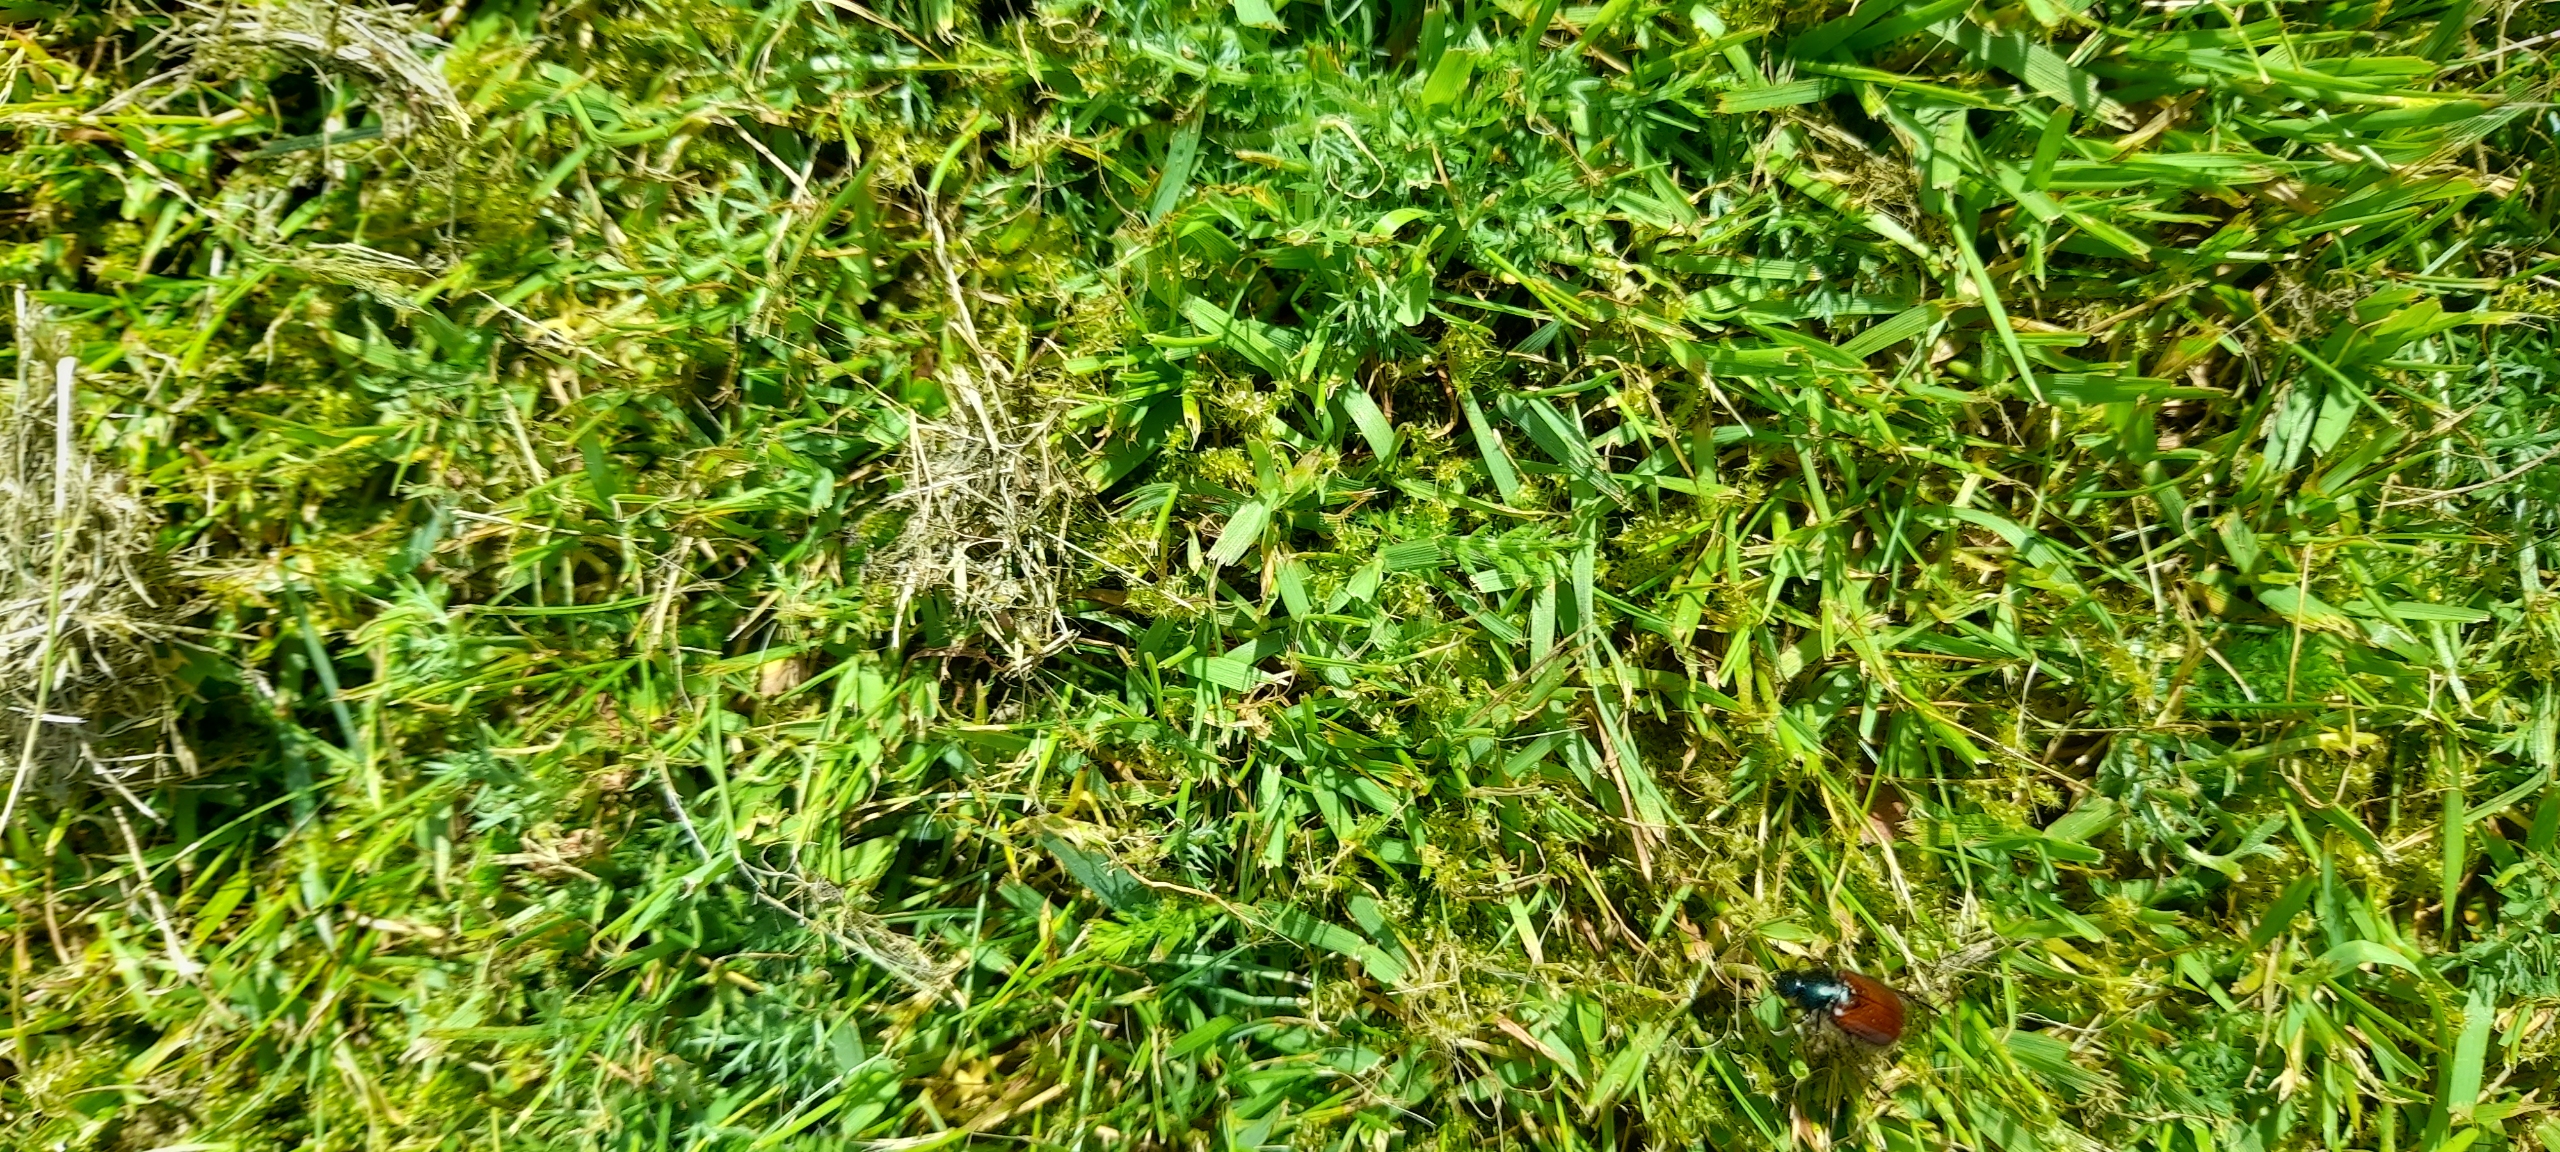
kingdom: Animalia
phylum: Arthropoda
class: Insecta
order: Coleoptera
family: Scarabaeidae
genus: Phyllopertha
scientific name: Phyllopertha horticola
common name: Gåsebille
